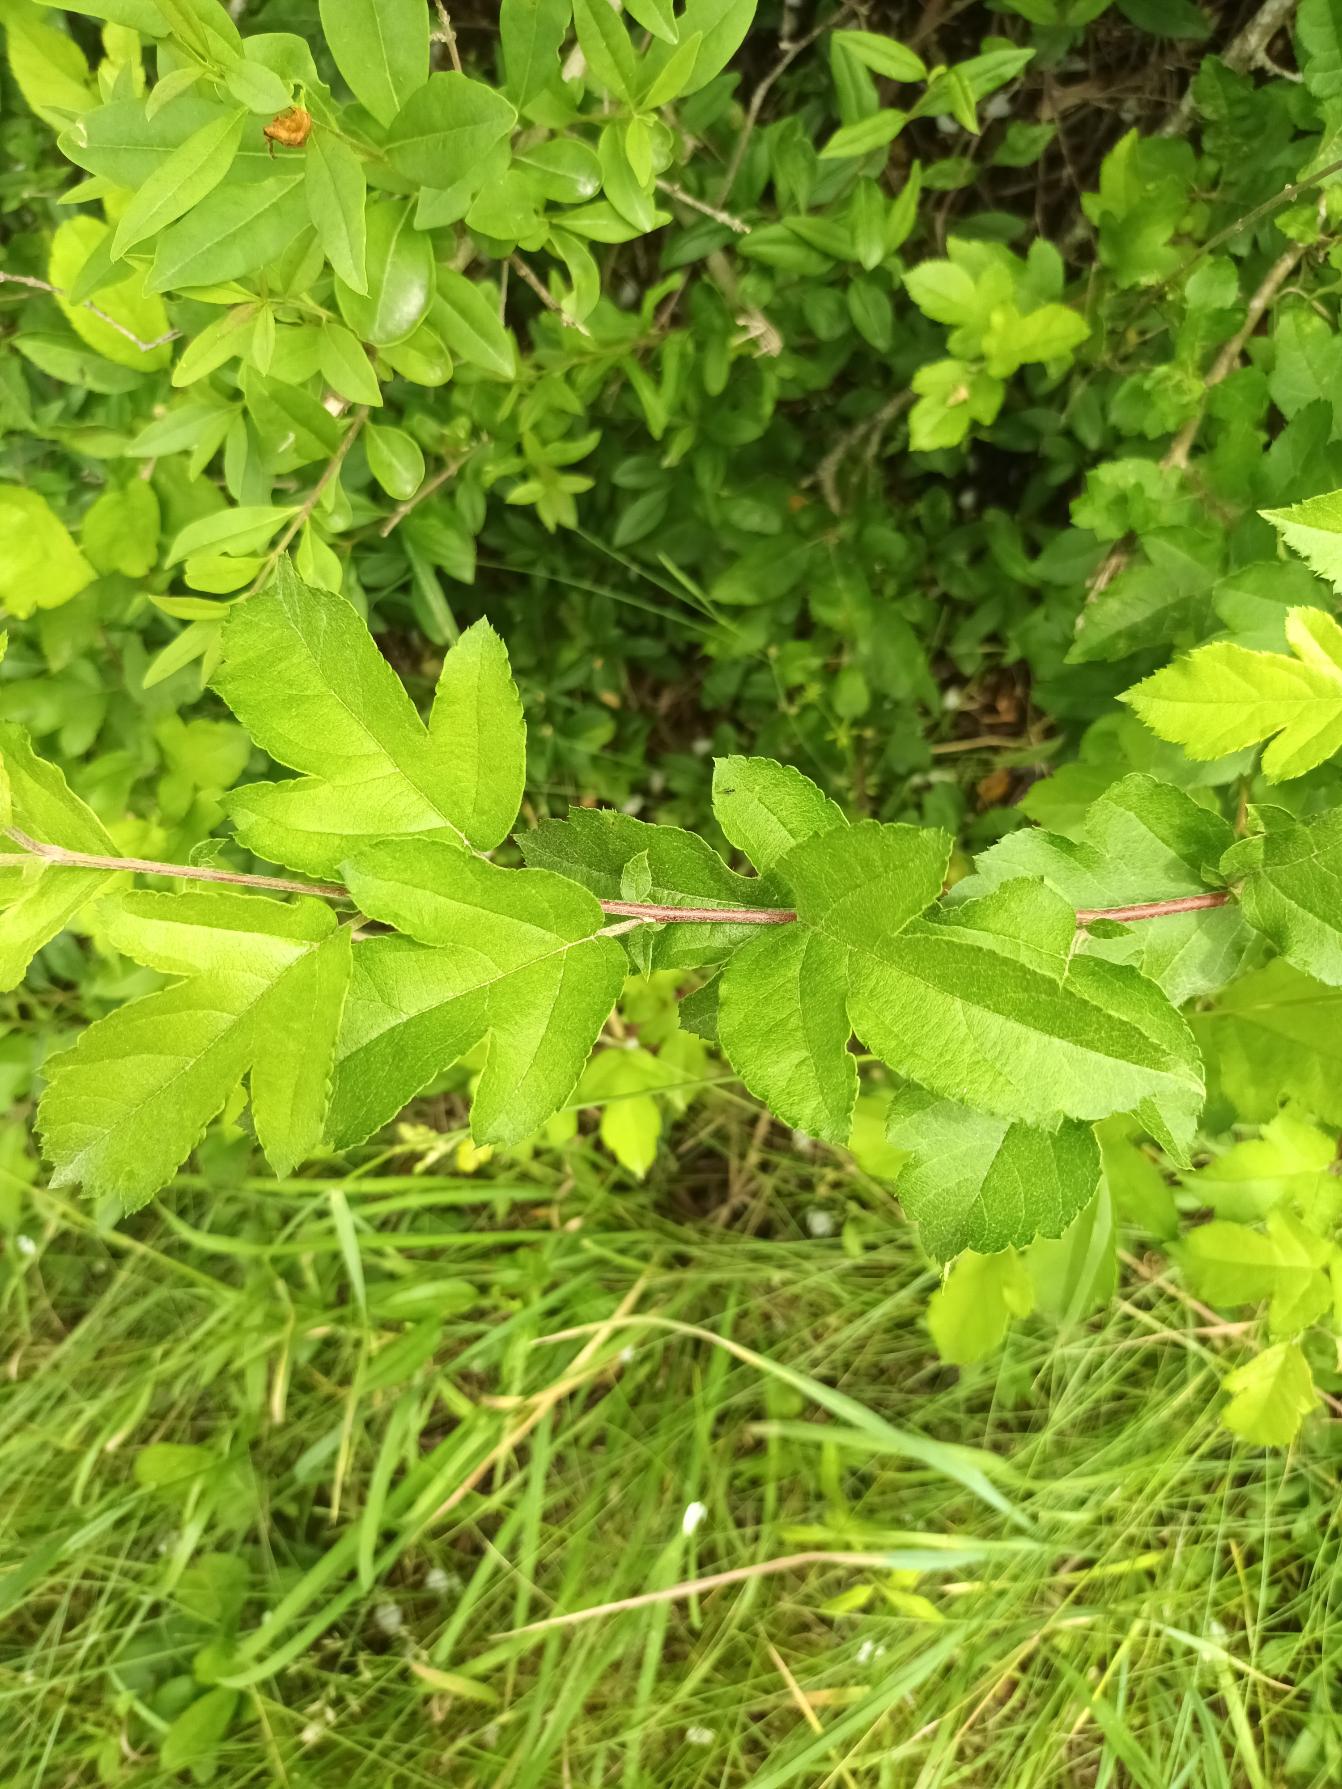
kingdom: Plantae
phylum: Tracheophyta
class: Magnoliopsida
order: Rosales
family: Rosaceae
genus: Malus
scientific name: Malus toringo
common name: Sargents-æble
